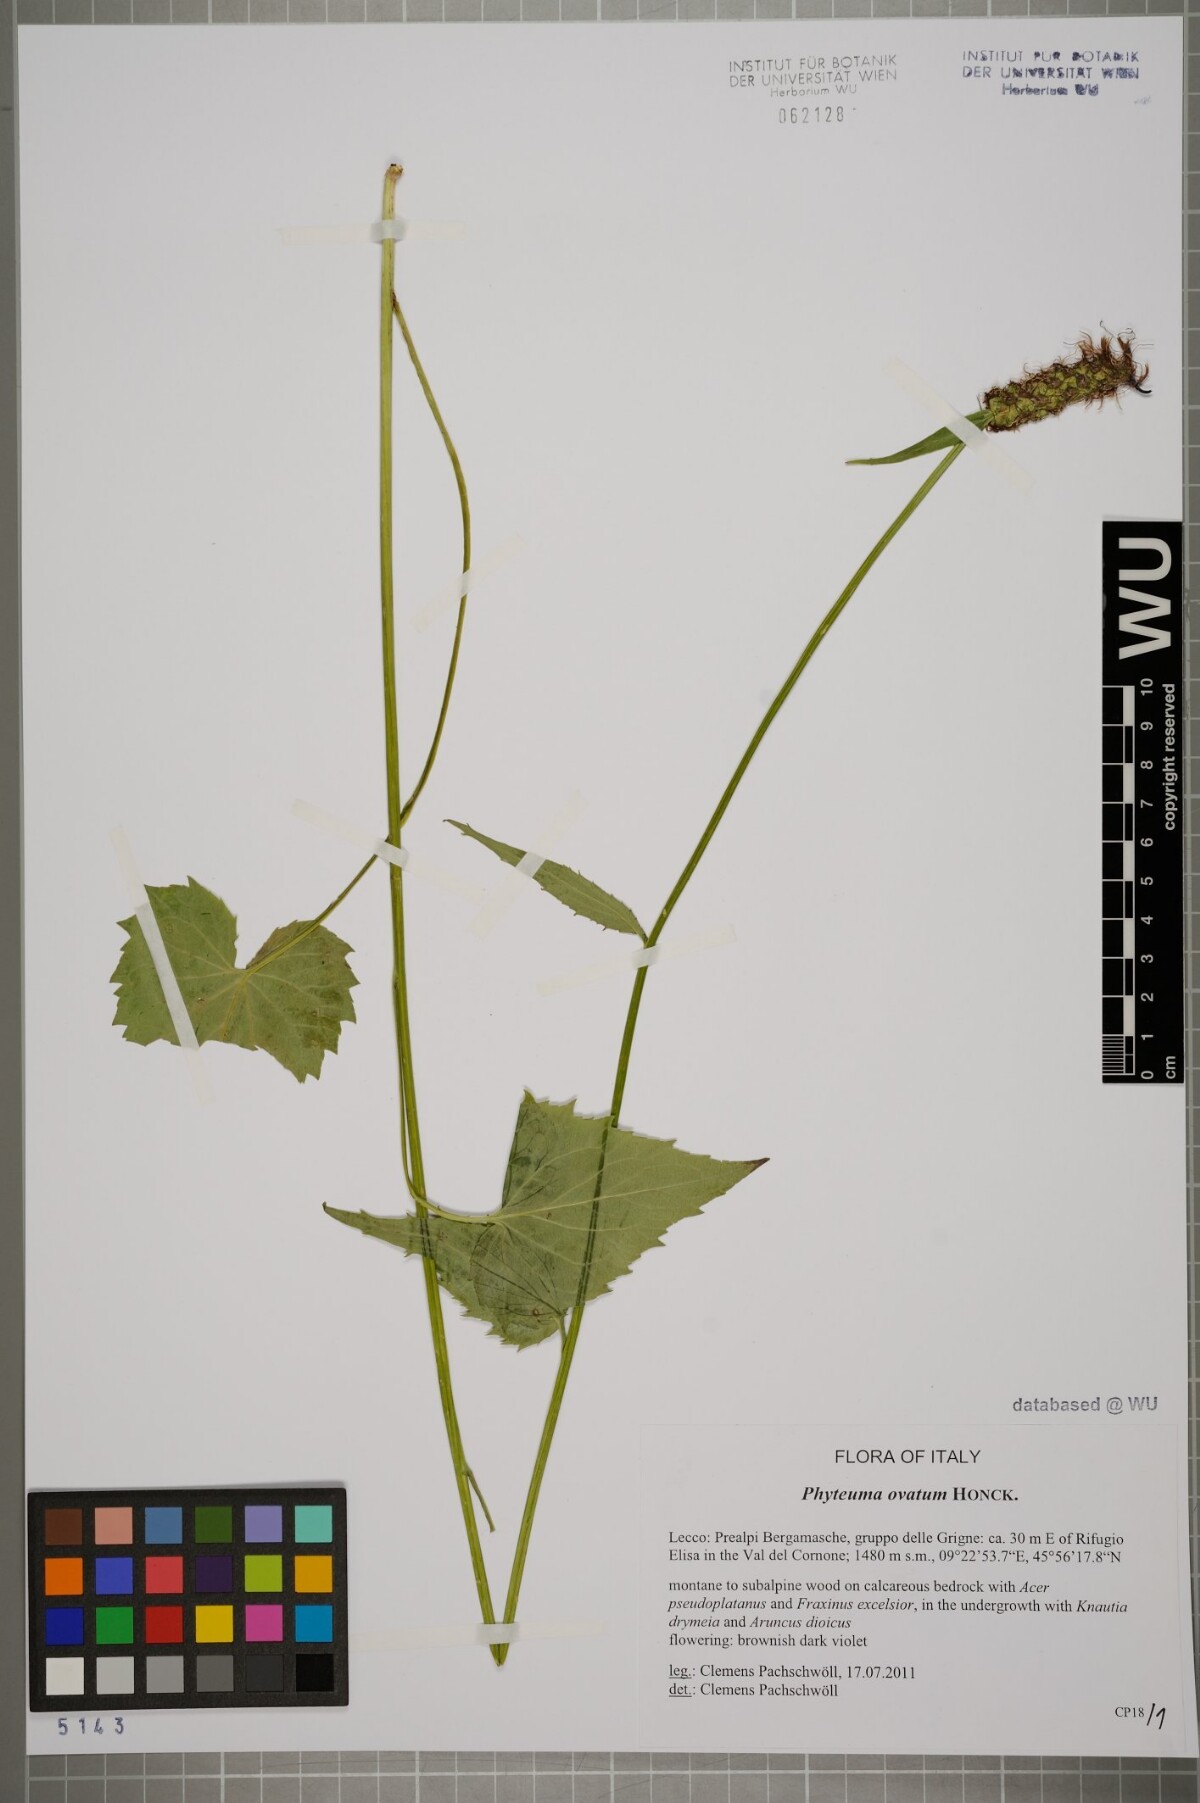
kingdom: Plantae
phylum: Tracheophyta
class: Magnoliopsida
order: Asterales
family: Campanulaceae
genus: Phyteuma
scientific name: Phyteuma ovatum
